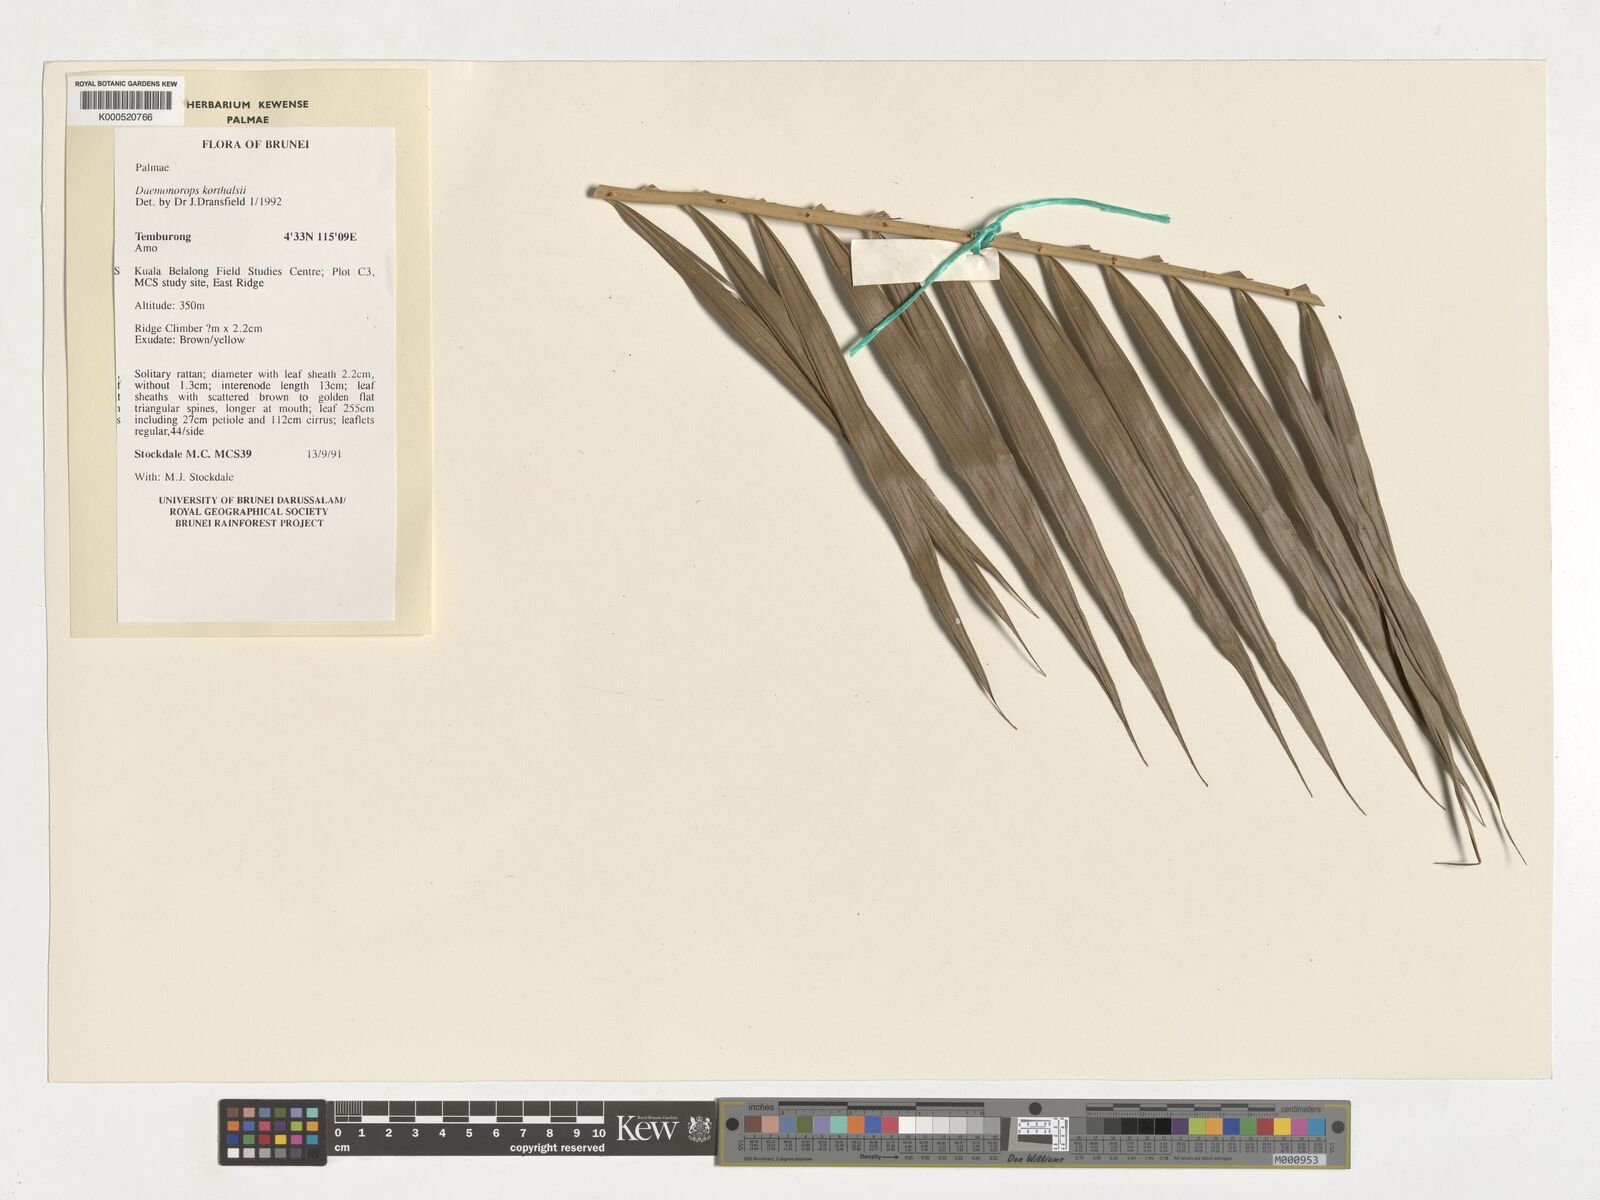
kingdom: Plantae
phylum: Tracheophyta
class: Liliopsida
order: Arecales
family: Arecaceae
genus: Calamus
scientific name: Calamus hirsutus
